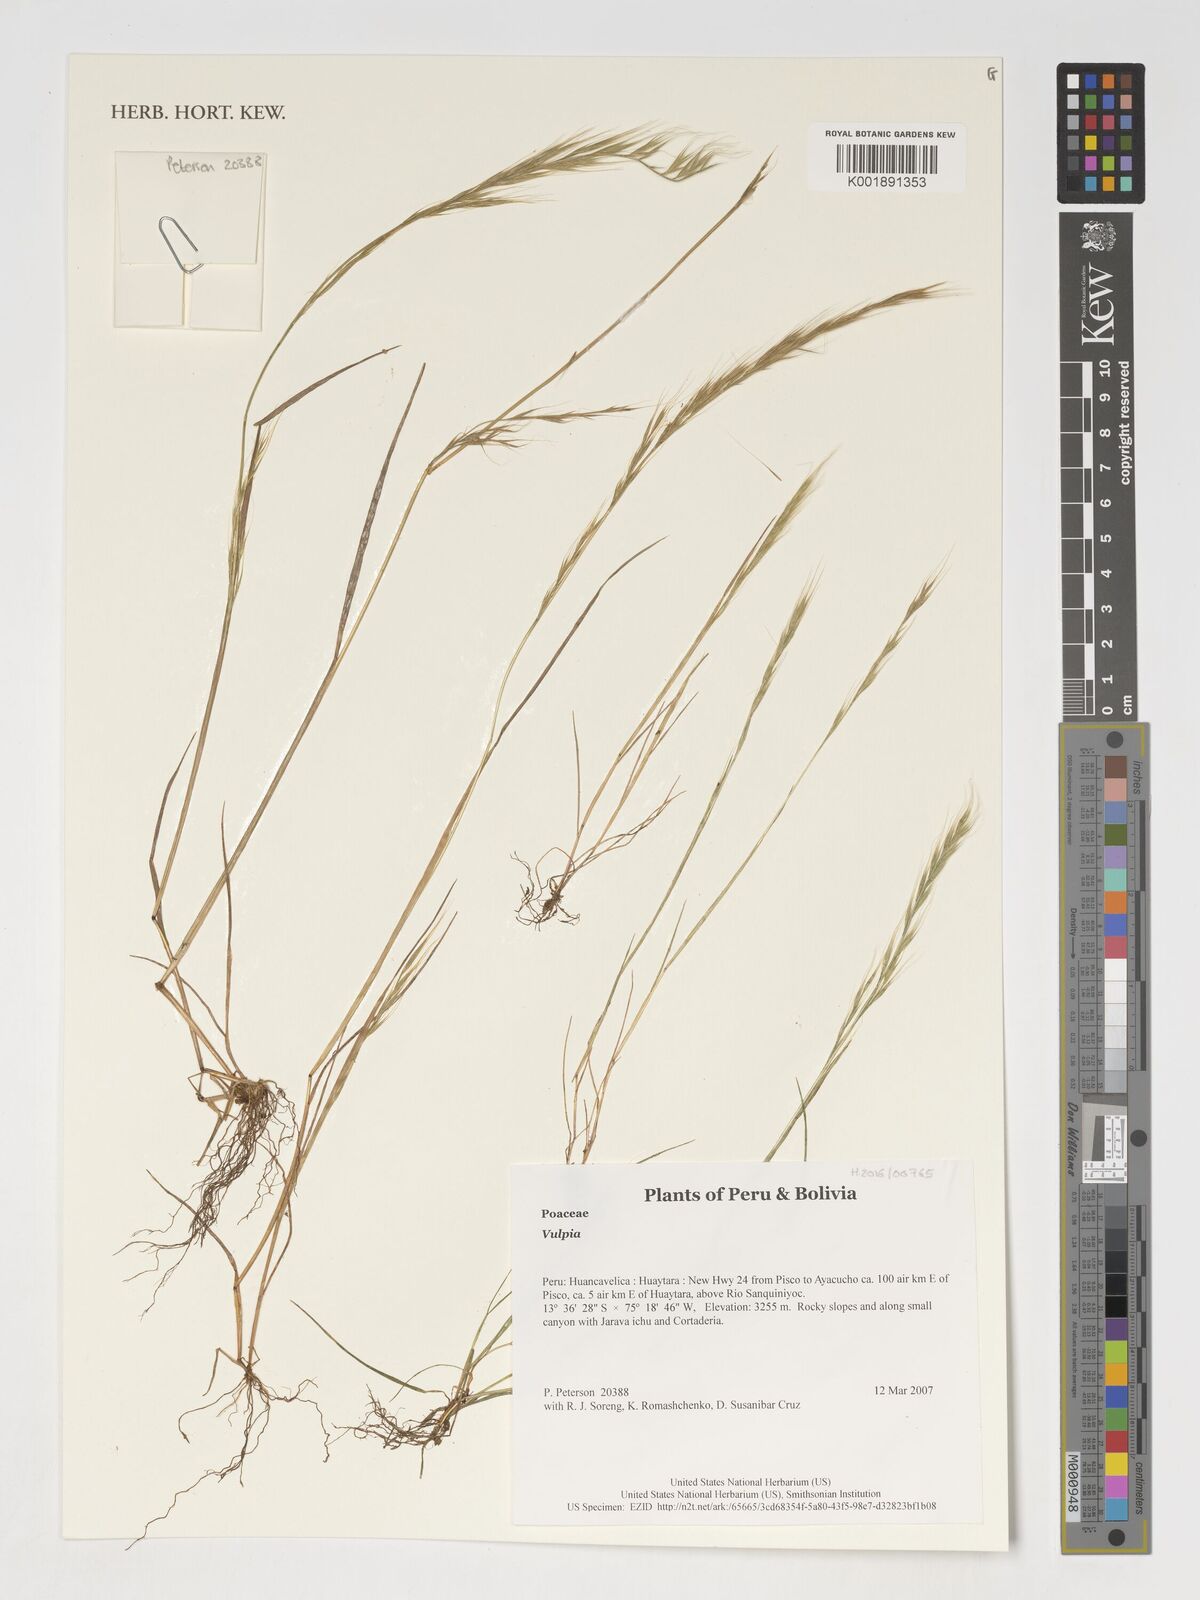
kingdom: Plantae
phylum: Tracheophyta
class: Liliopsida
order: Poales
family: Poaceae
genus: Festuca
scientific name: Festuca
